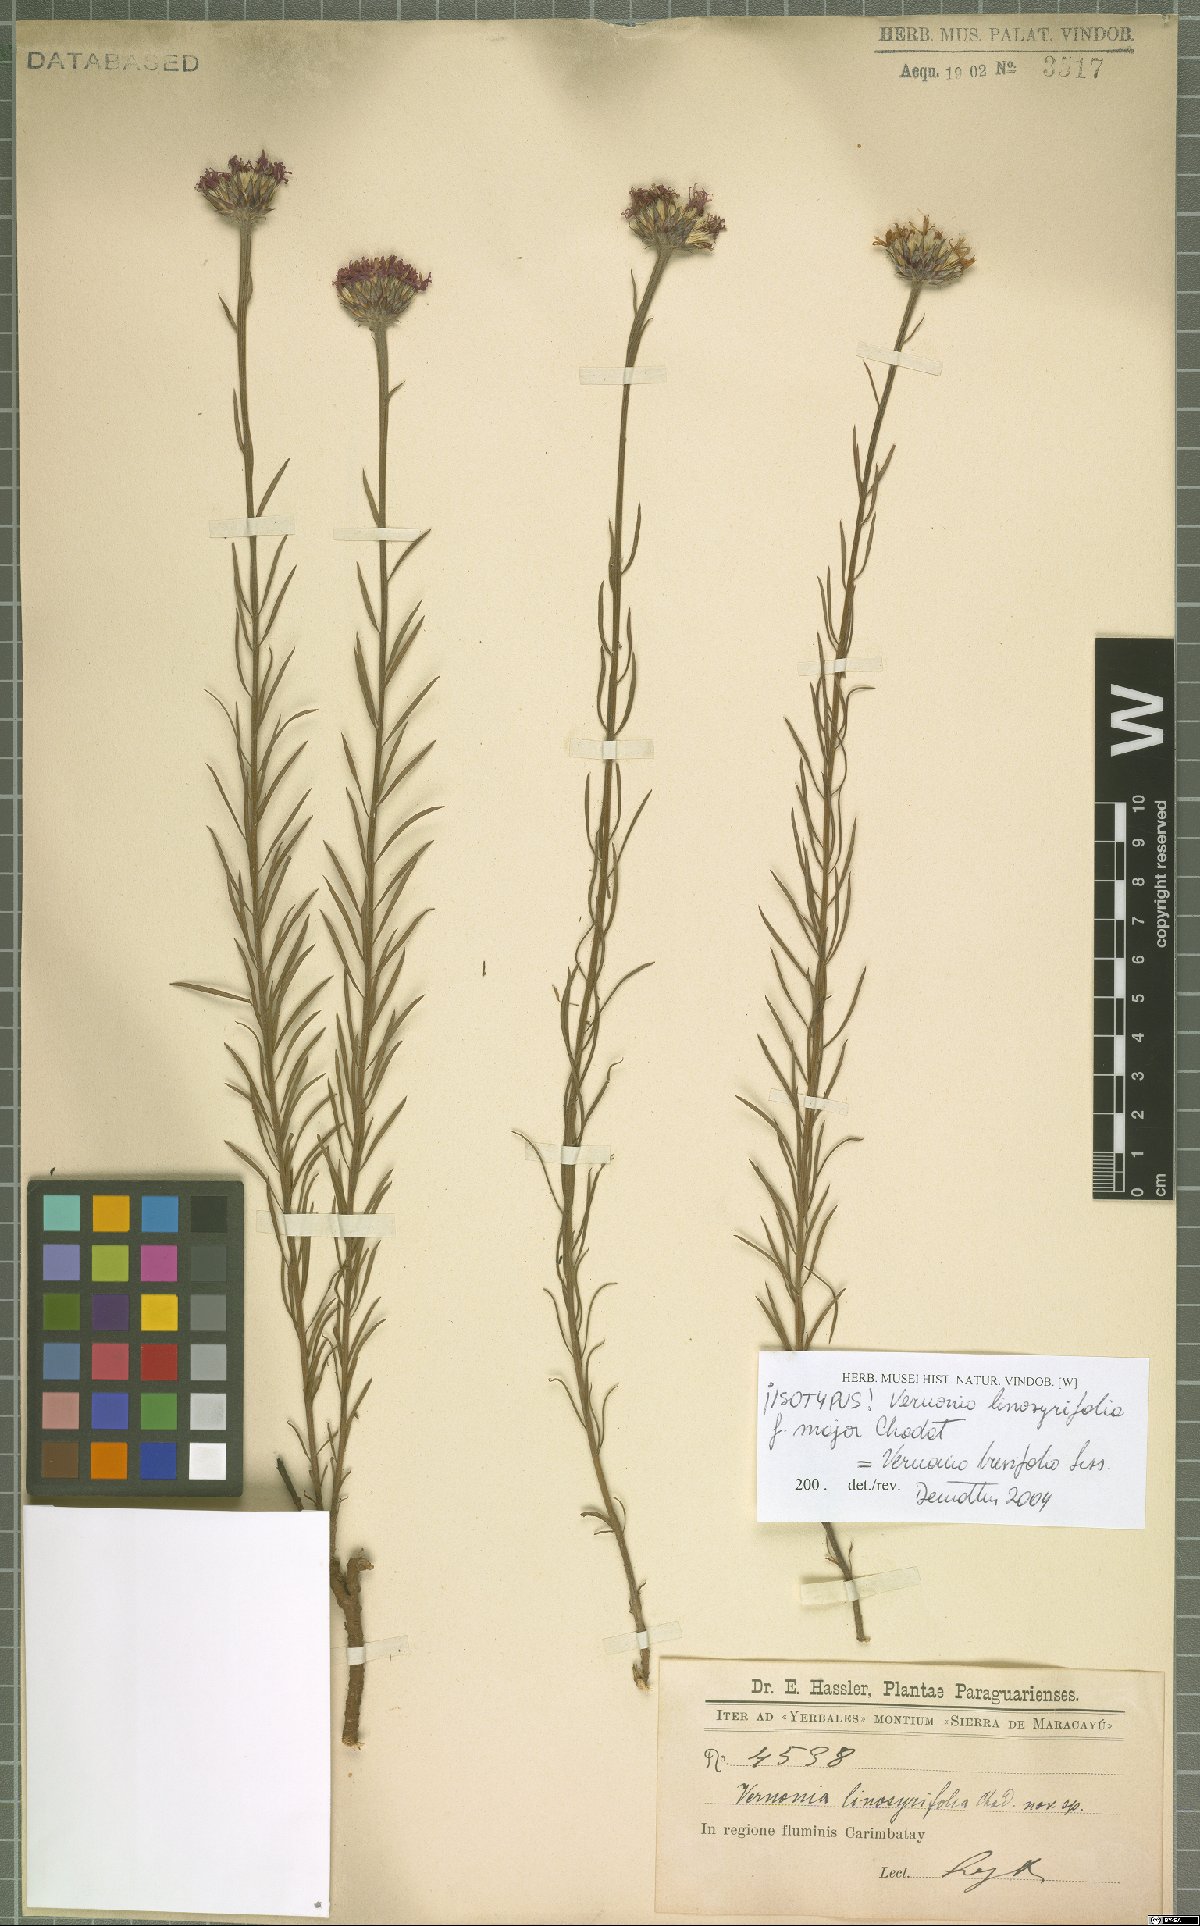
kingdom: Plantae
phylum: Tracheophyta
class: Magnoliopsida
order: Asterales
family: Asteraceae
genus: Lessingianthus
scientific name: Lessingianthus brevifolius
